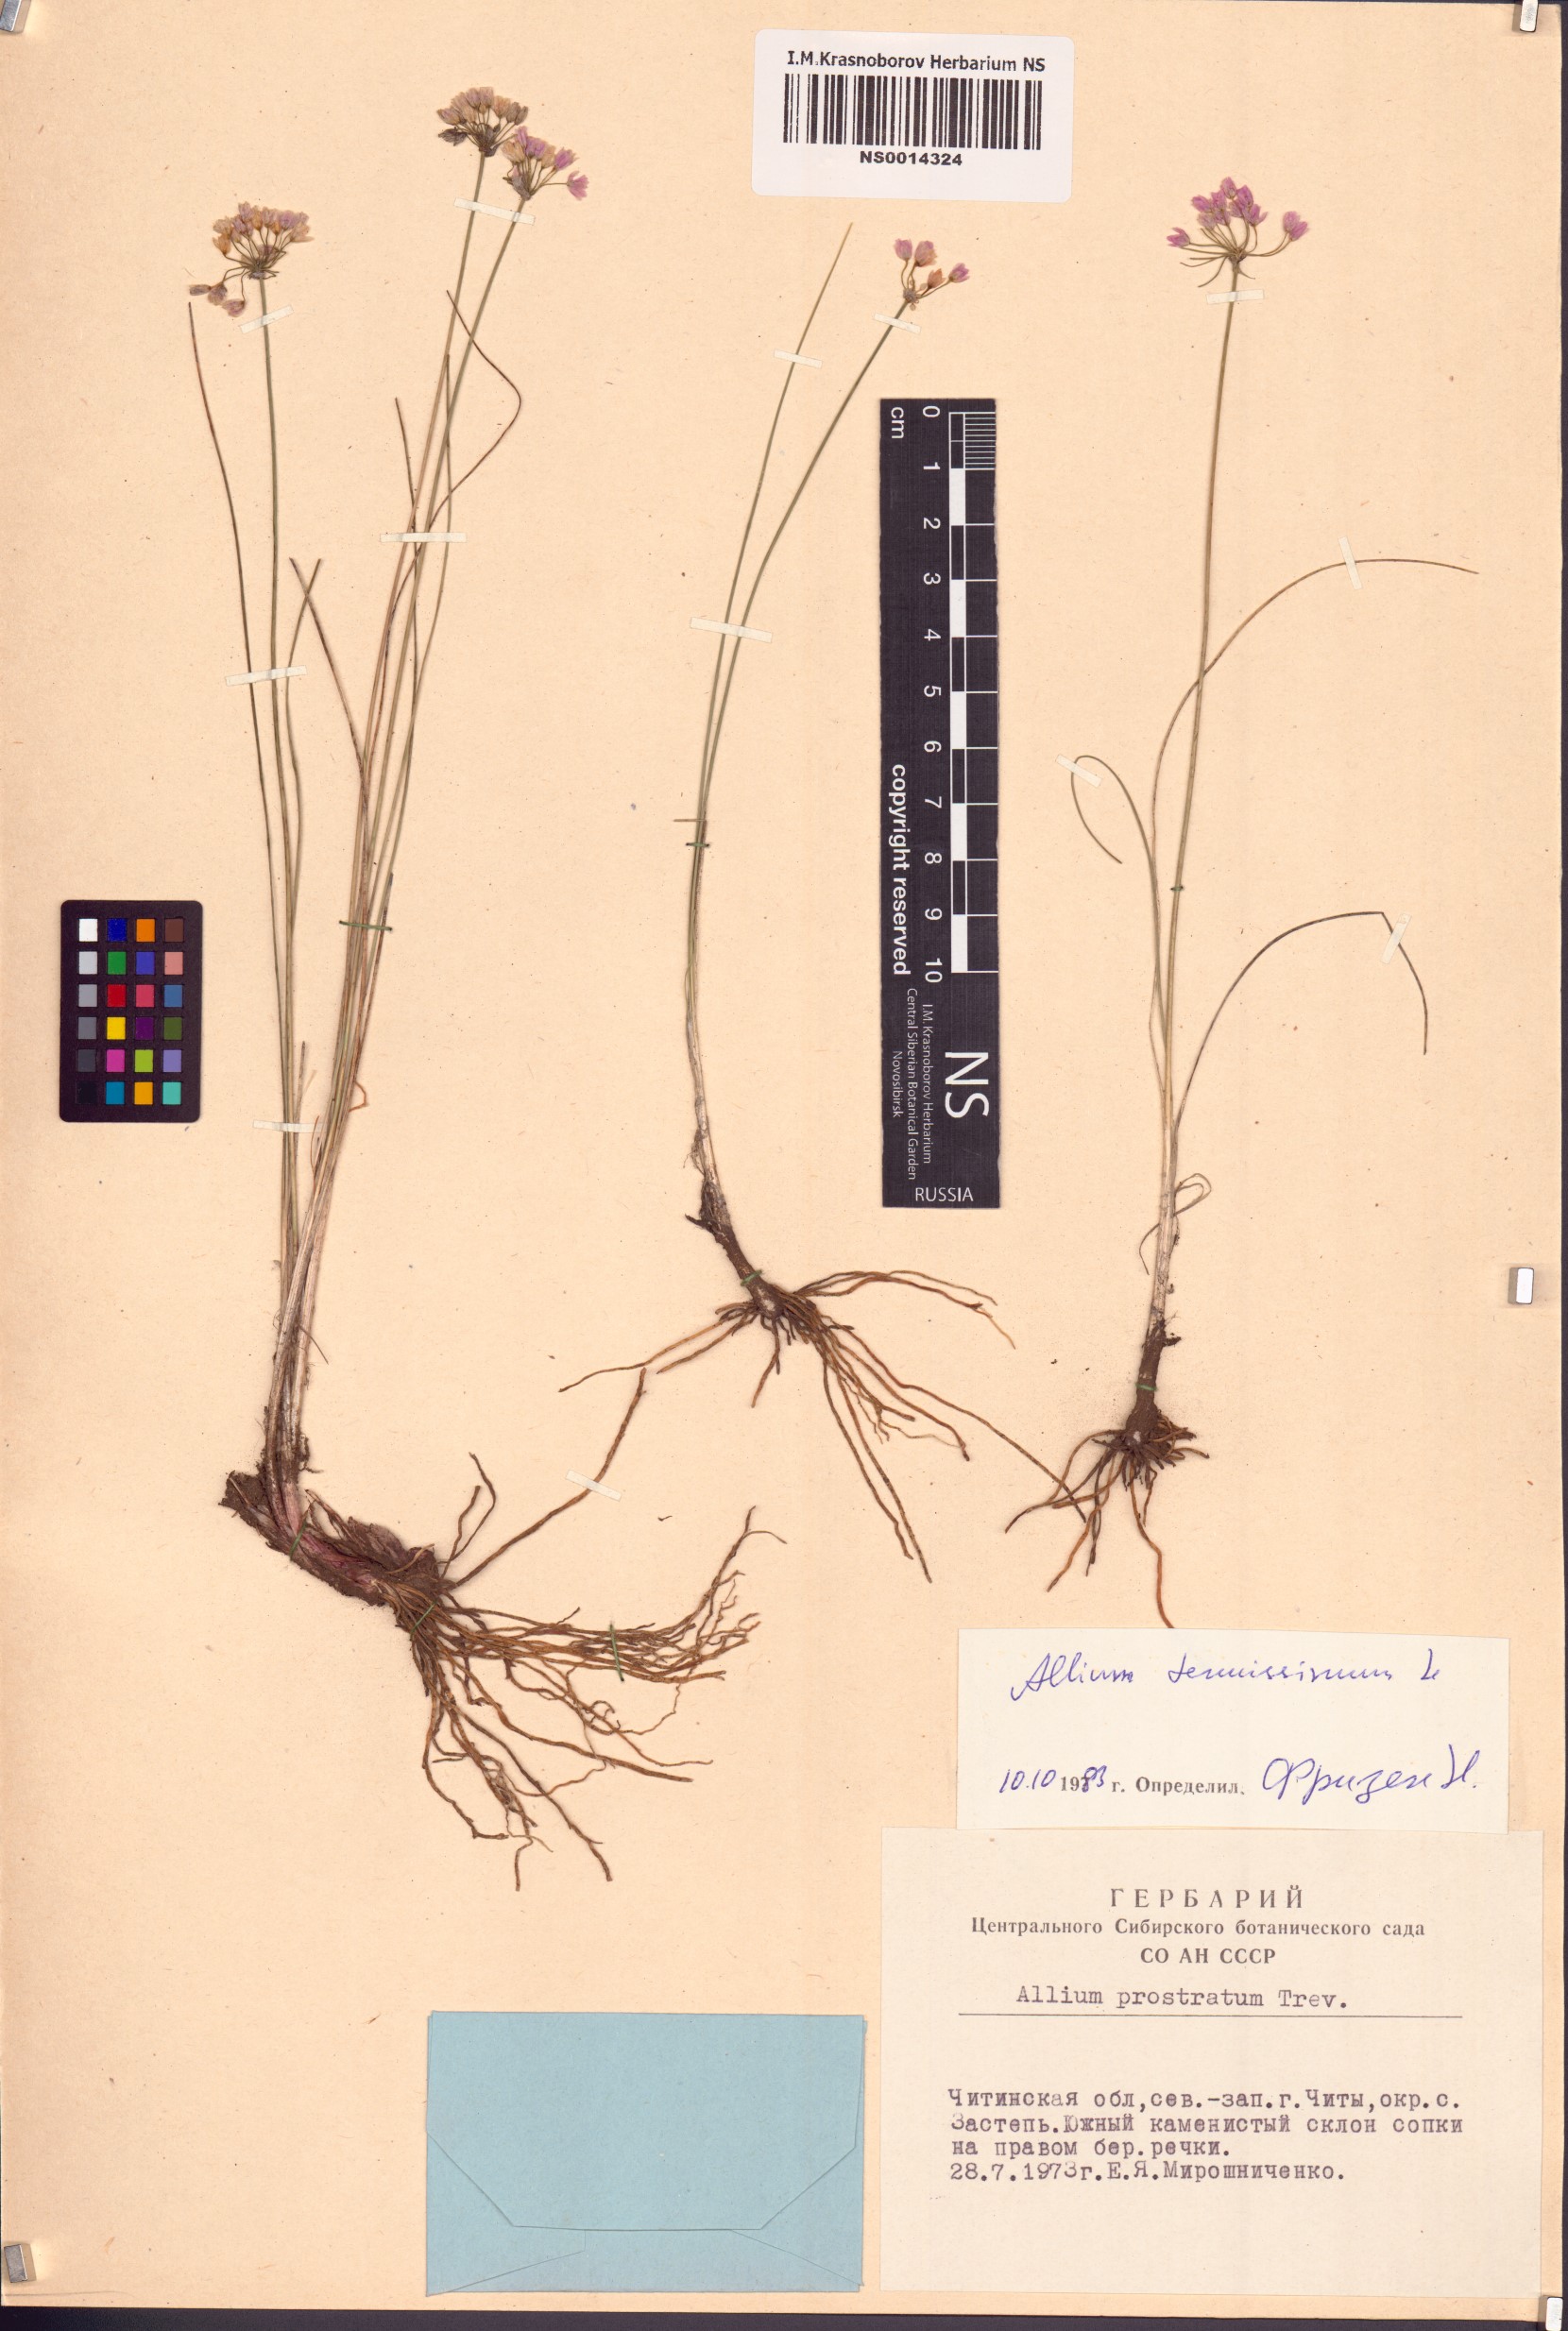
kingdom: Plantae
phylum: Tracheophyta
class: Liliopsida
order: Asparagales
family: Amaryllidaceae
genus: Allium
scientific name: Allium tenuissimum
